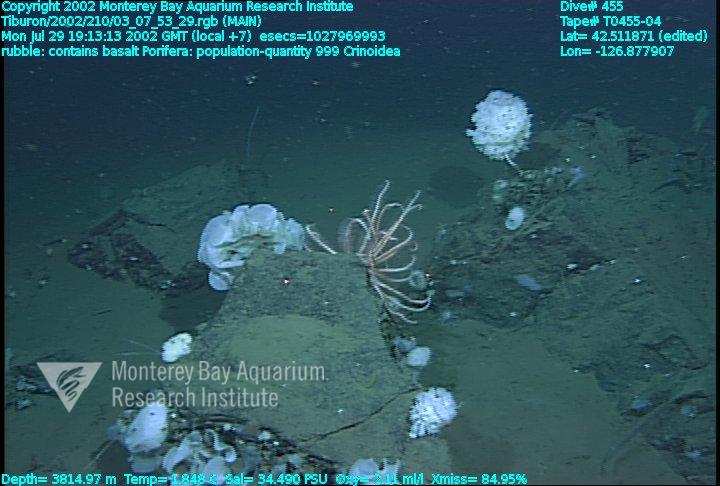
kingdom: Animalia
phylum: Porifera
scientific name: Porifera
